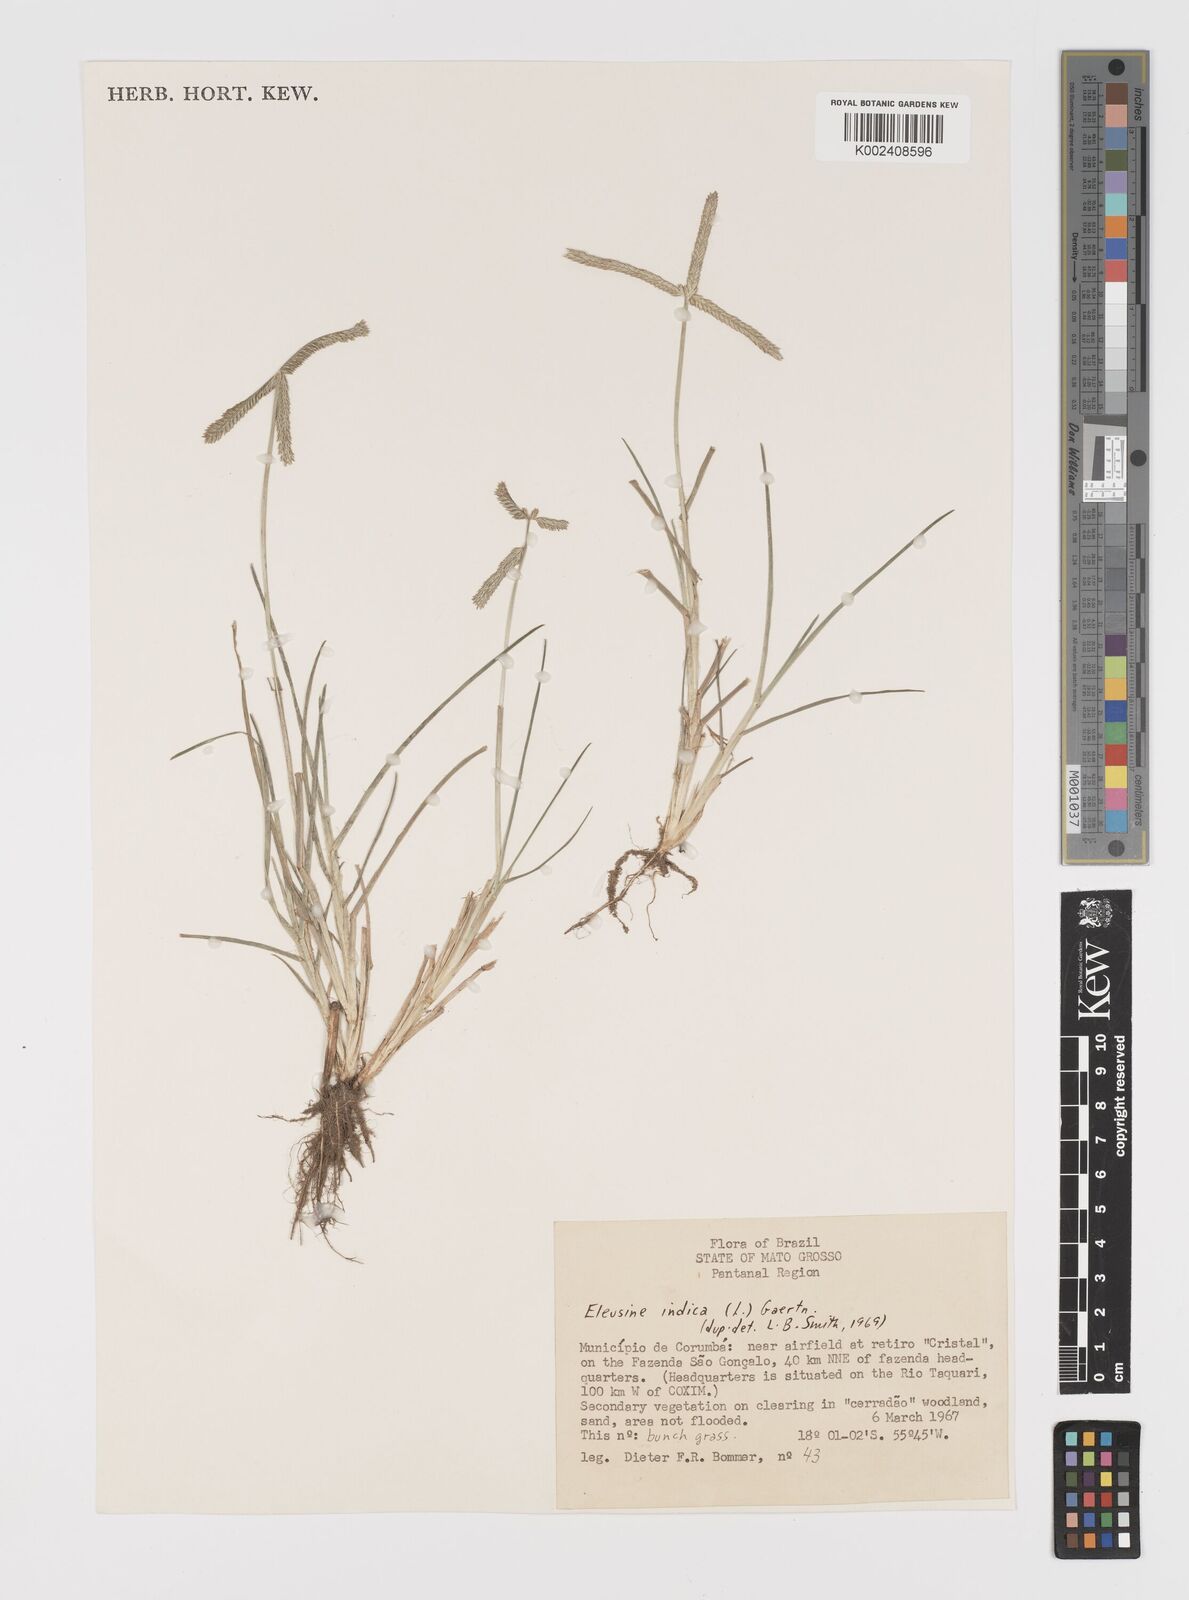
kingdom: Plantae
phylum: Tracheophyta
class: Liliopsida
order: Poales
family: Poaceae
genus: Eleusine
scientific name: Eleusine indica
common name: Yard-grass
